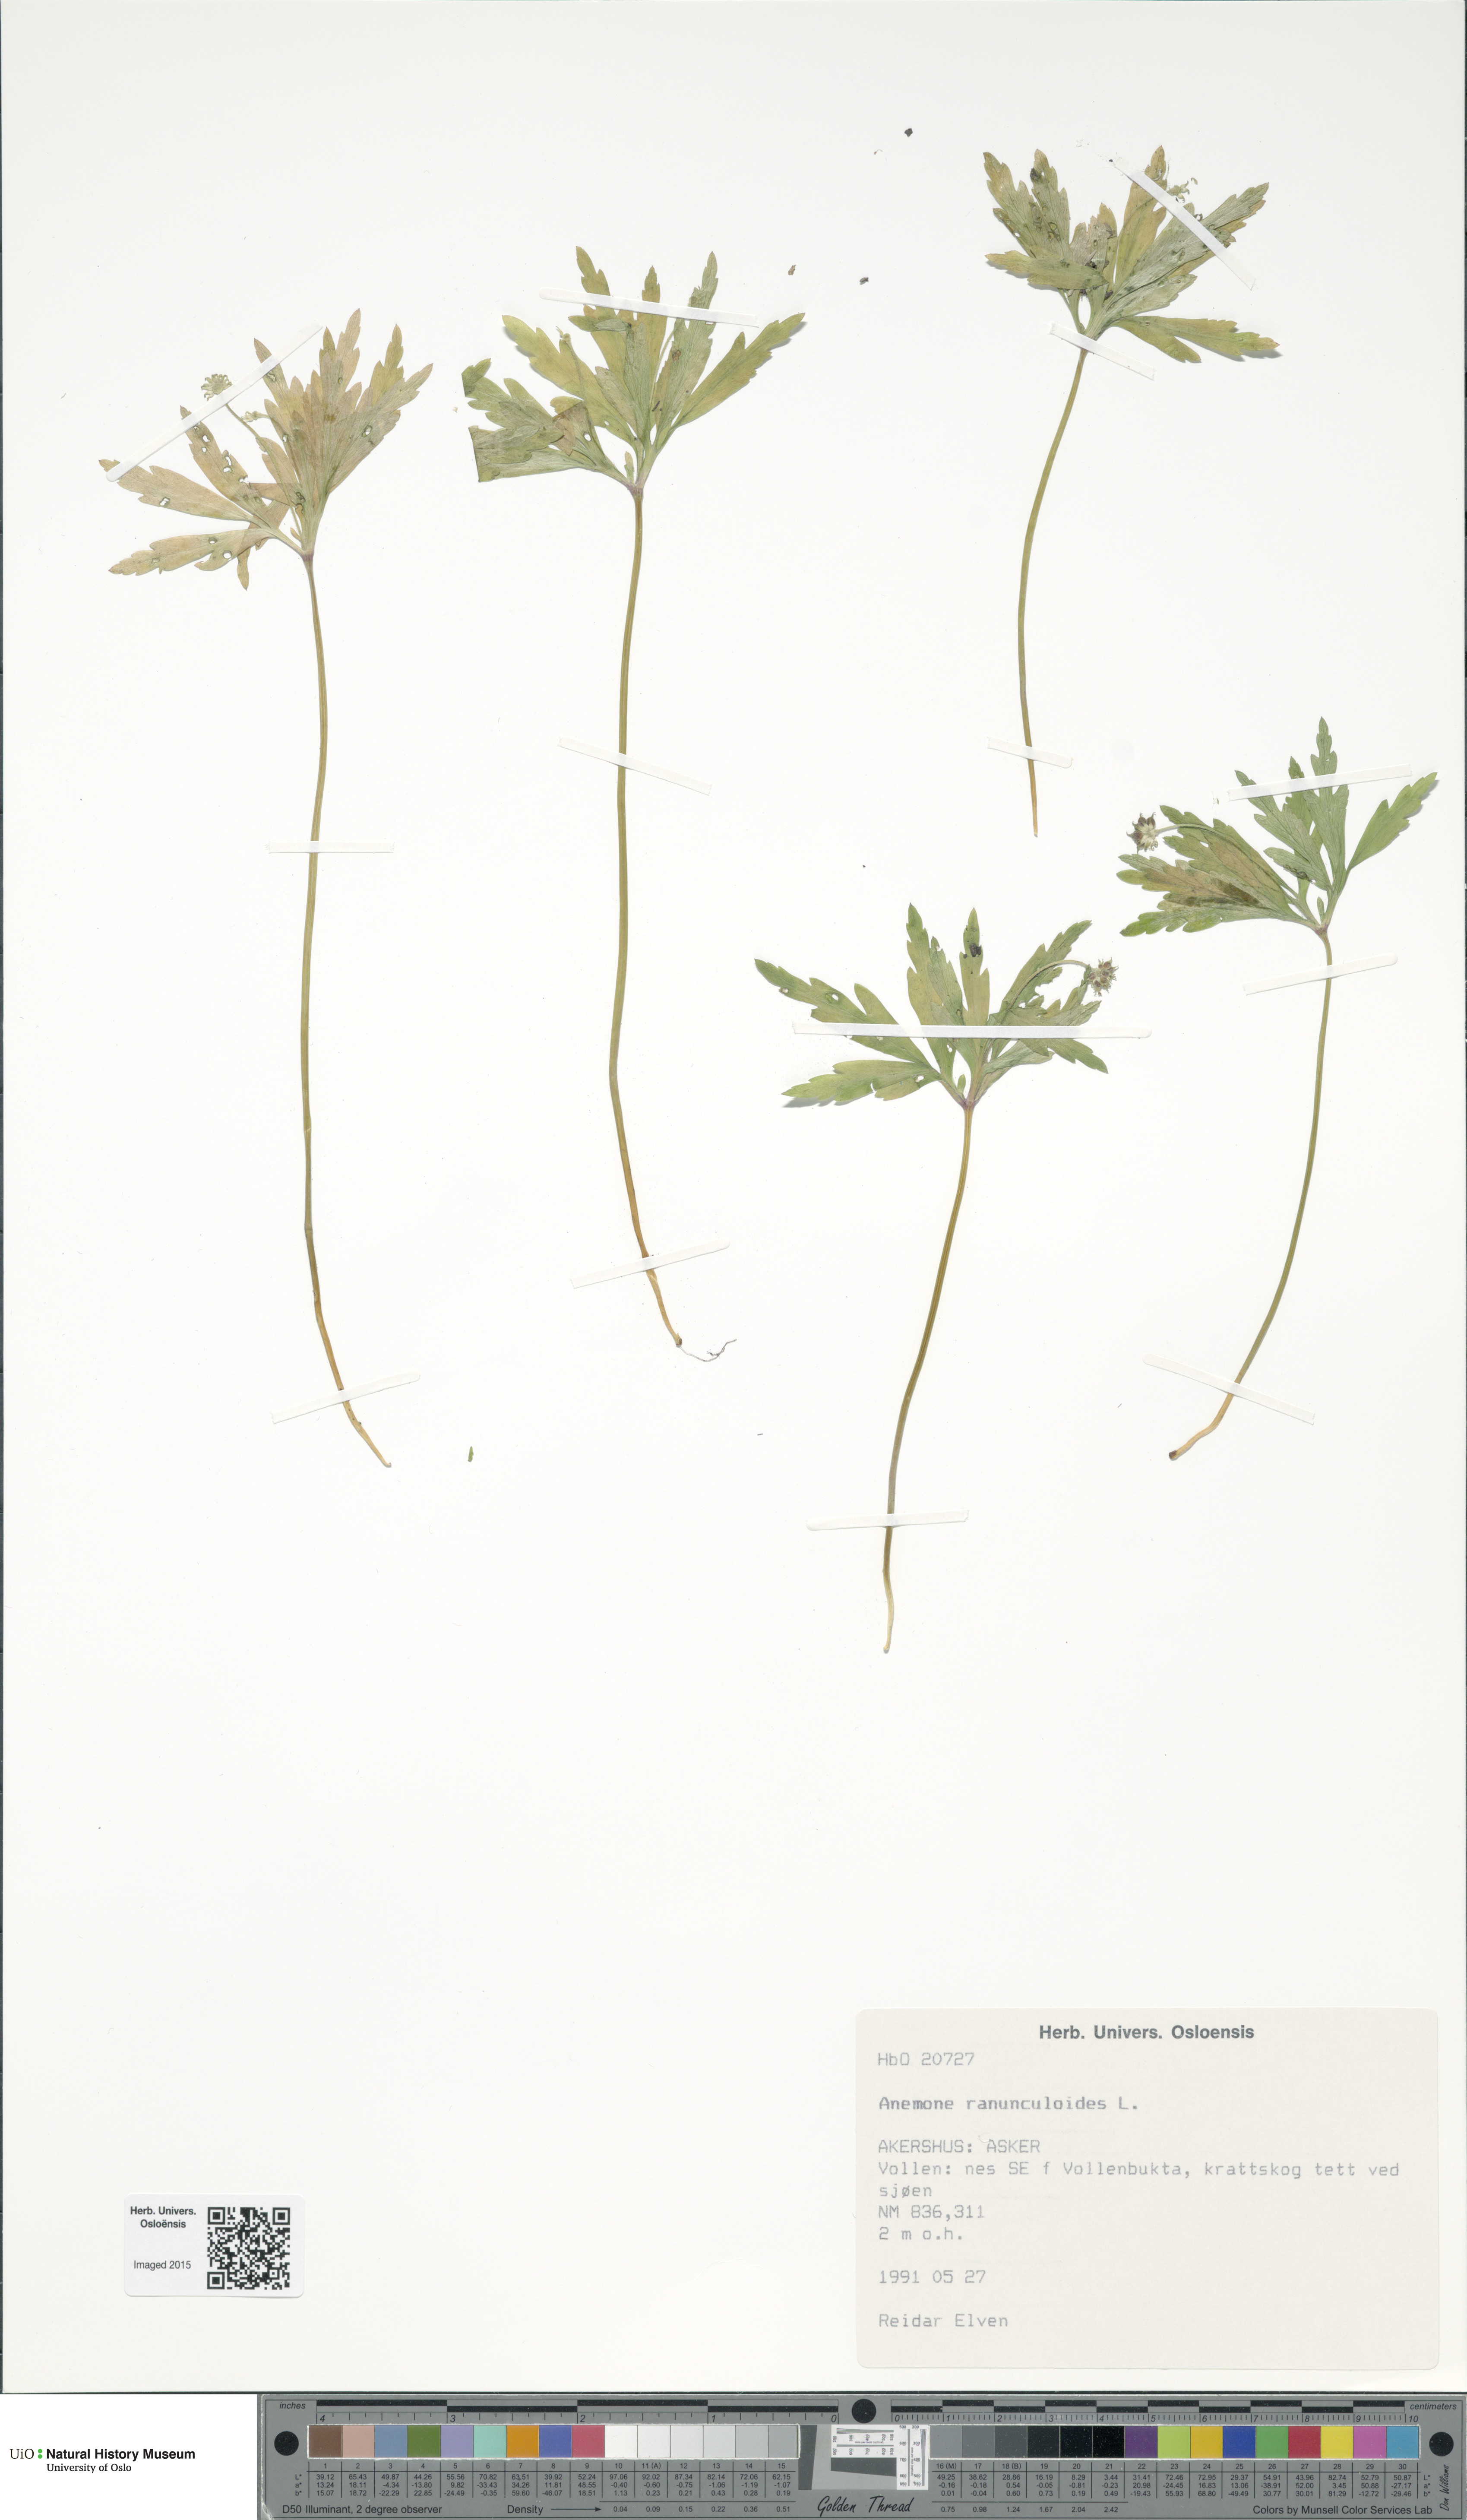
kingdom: Plantae
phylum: Tracheophyta
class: Magnoliopsida
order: Ranunculales
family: Ranunculaceae
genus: Anemone
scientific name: Anemone ranunculoides
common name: Yellow anemone
